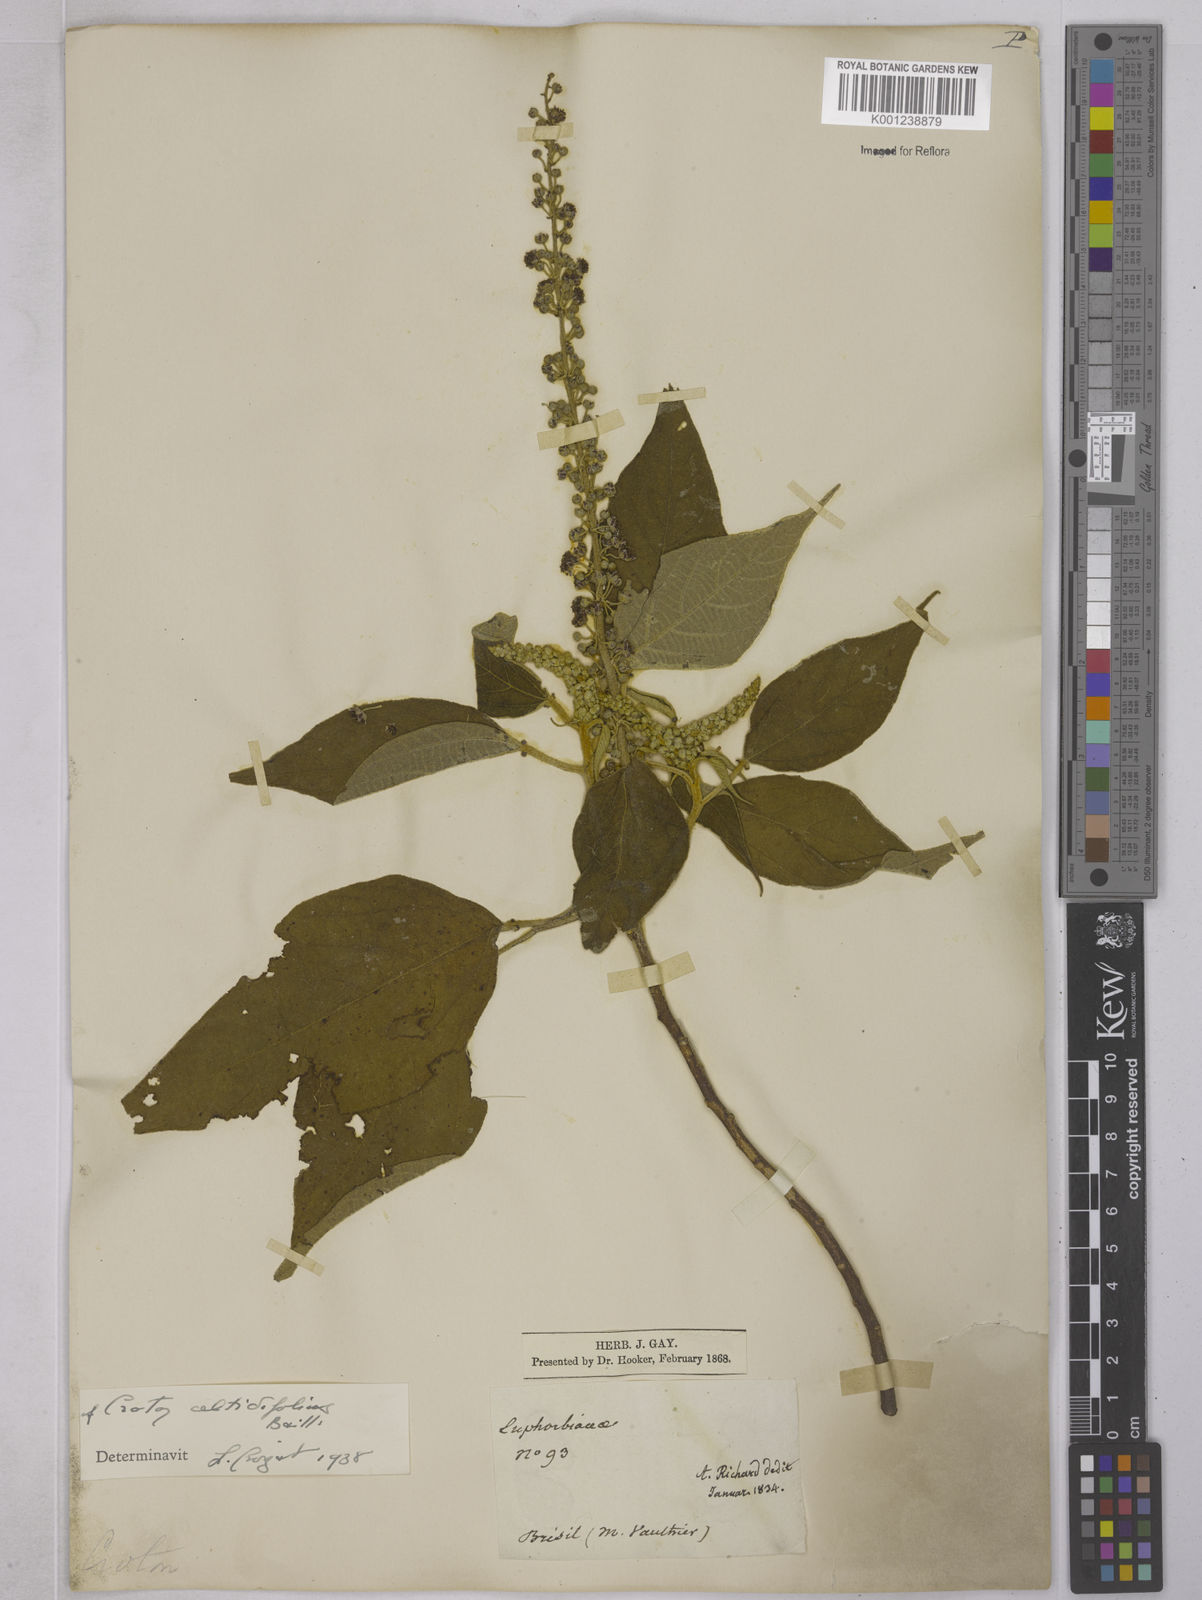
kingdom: Plantae
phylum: Tracheophyta
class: Magnoliopsida
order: Malpighiales
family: Euphorbiaceae
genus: Croton
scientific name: Croton celtidifolius
